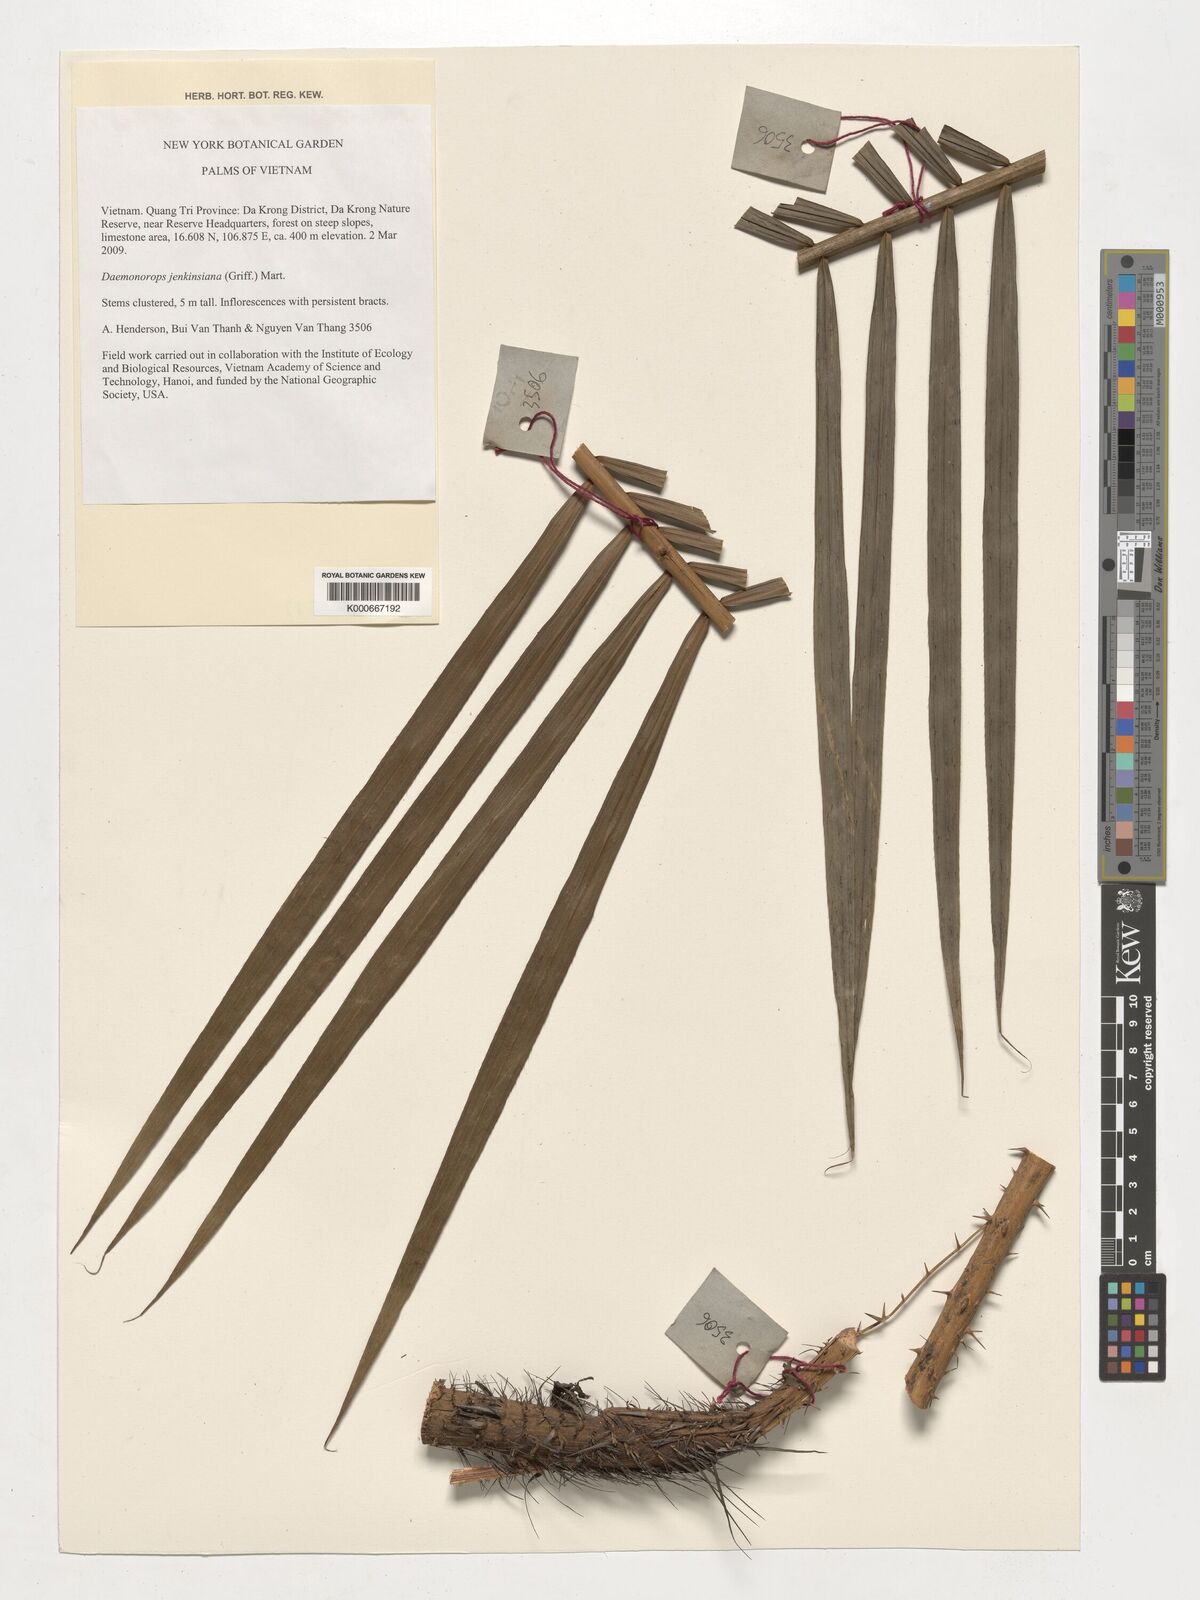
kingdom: Plantae
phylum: Tracheophyta
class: Liliopsida
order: Arecales
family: Arecaceae
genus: Calamus
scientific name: Calamus melanochaetes
